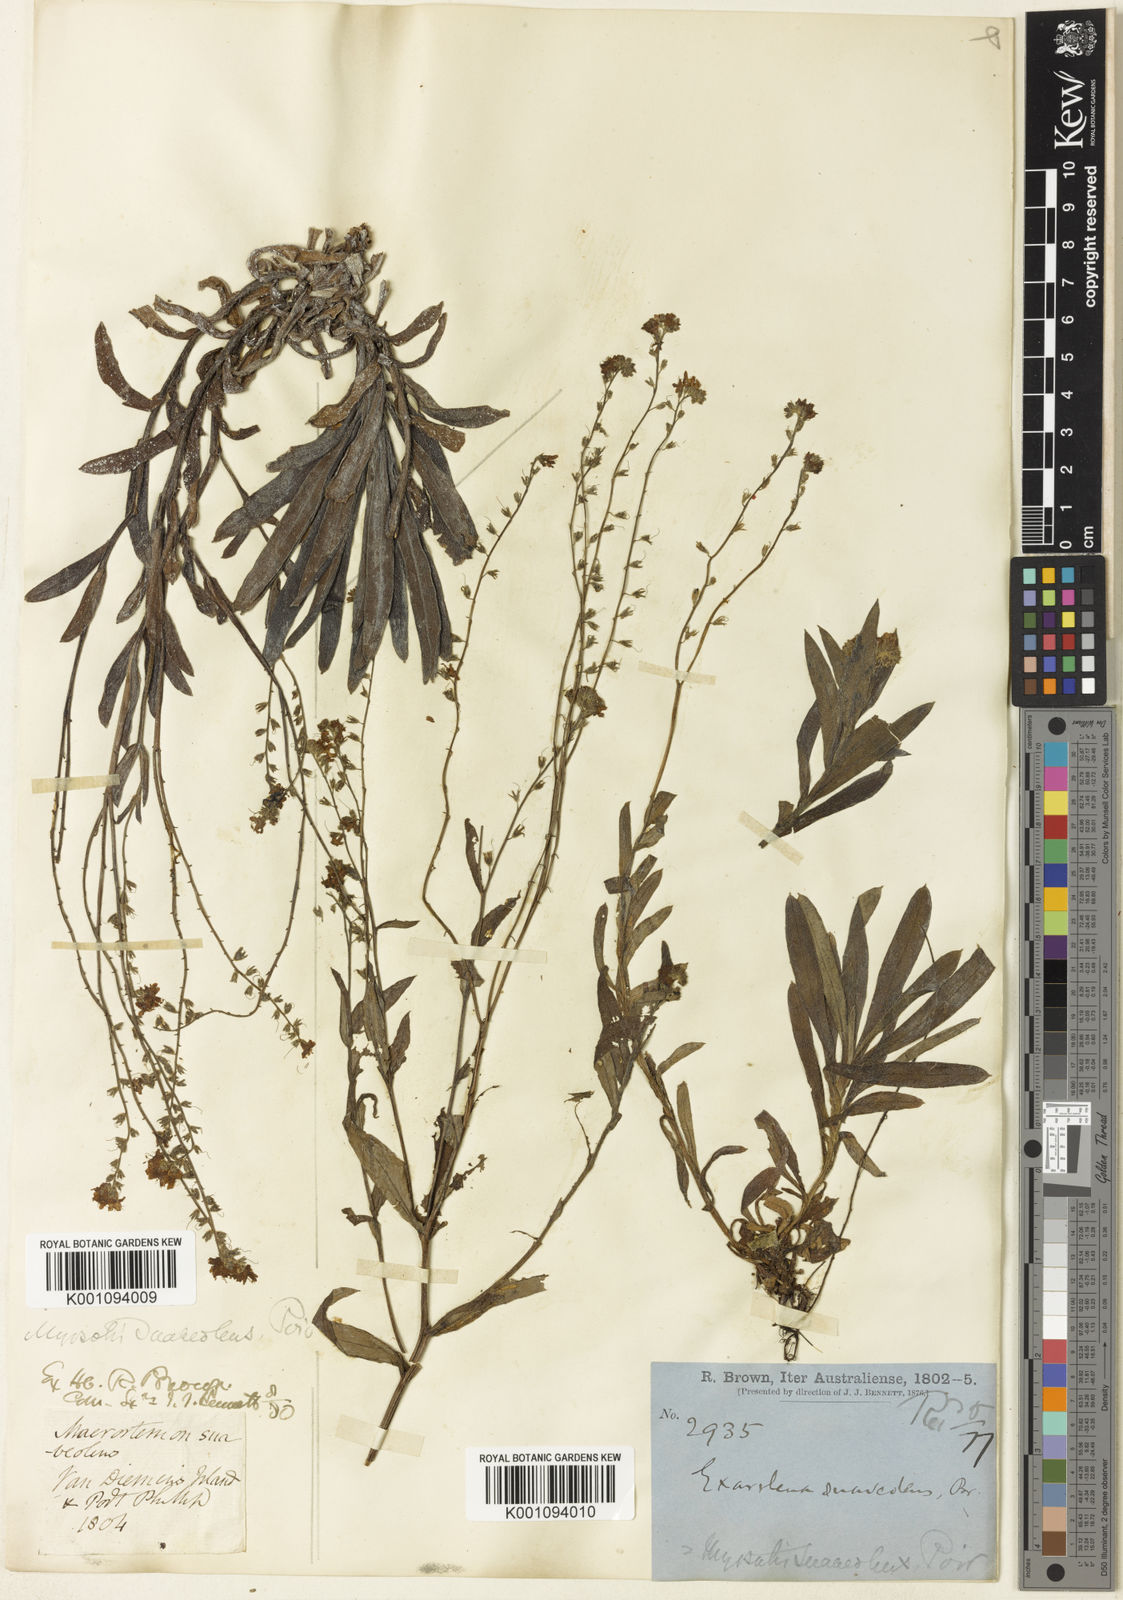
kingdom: Plantae
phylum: Tracheophyta
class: Magnoliopsida
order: Boraginales
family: Boraginaceae
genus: Myosotis
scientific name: Myosotis exarrhena
